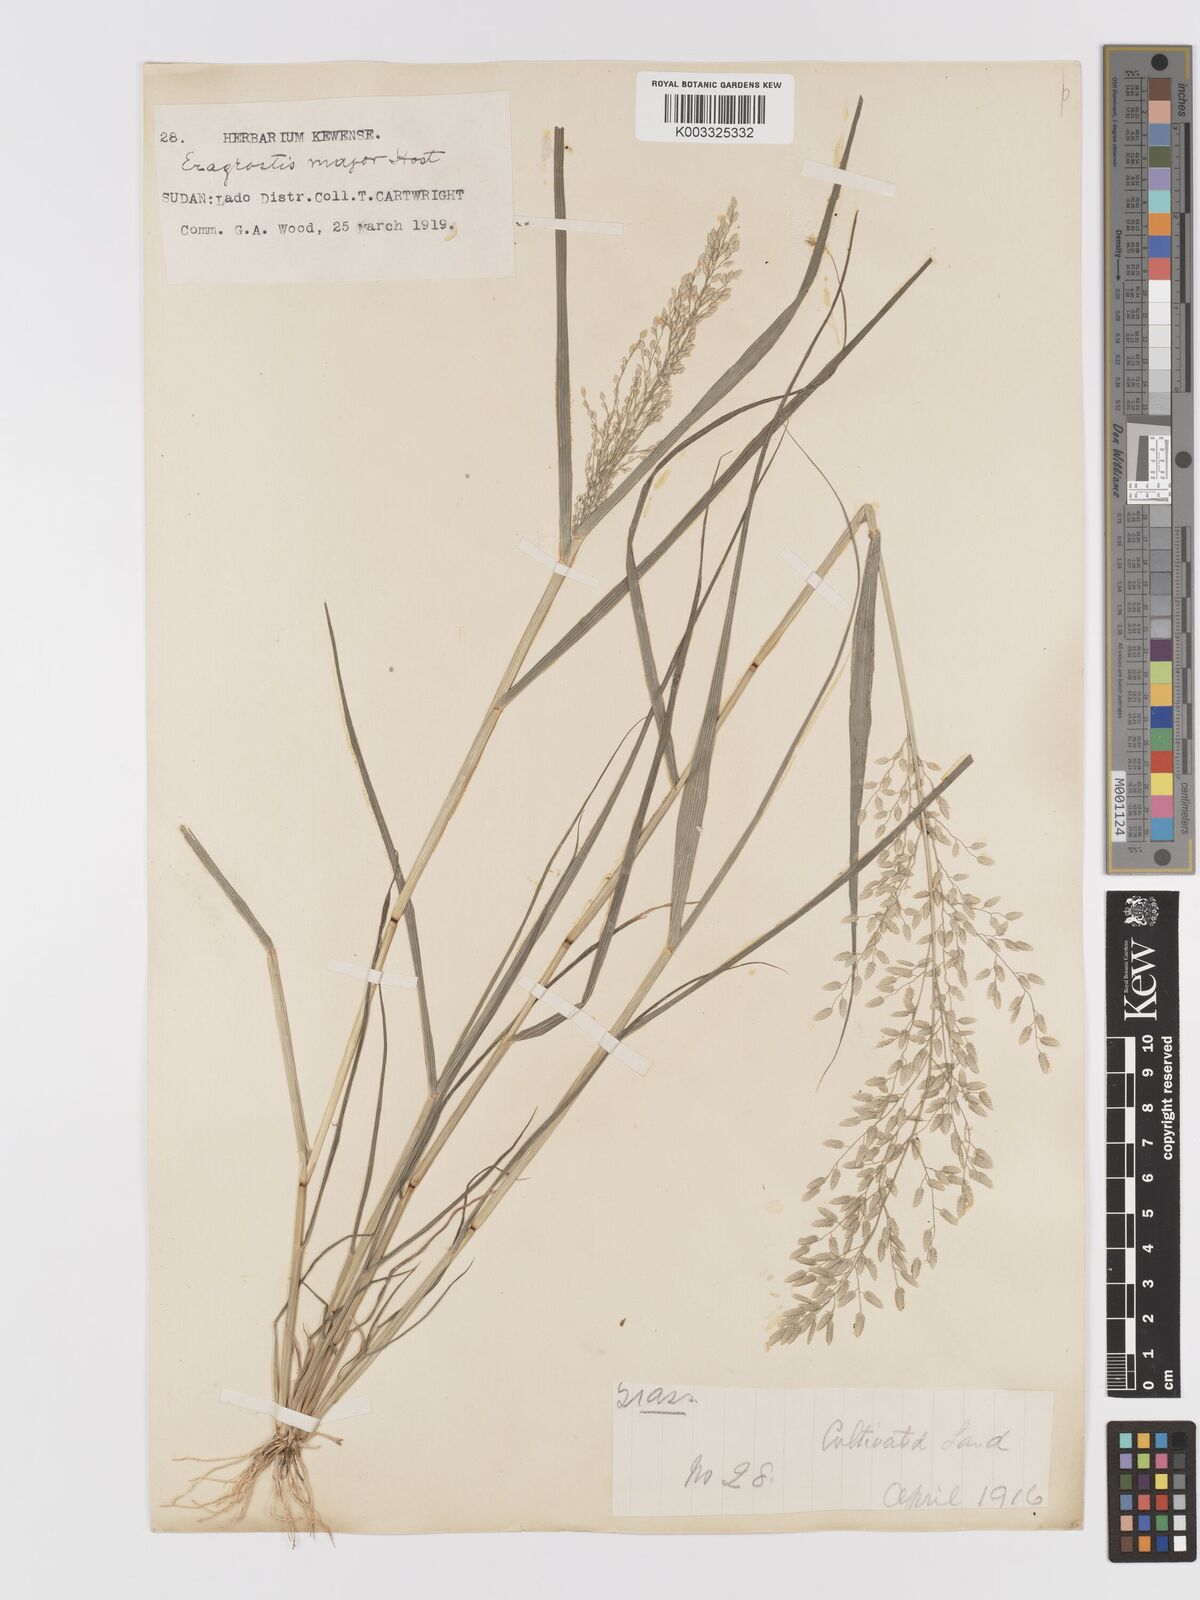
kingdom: Plantae
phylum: Tracheophyta
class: Liliopsida
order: Poales
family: Poaceae
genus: Eragrostis
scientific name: Eragrostis cilianensis
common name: Stinkgrass
